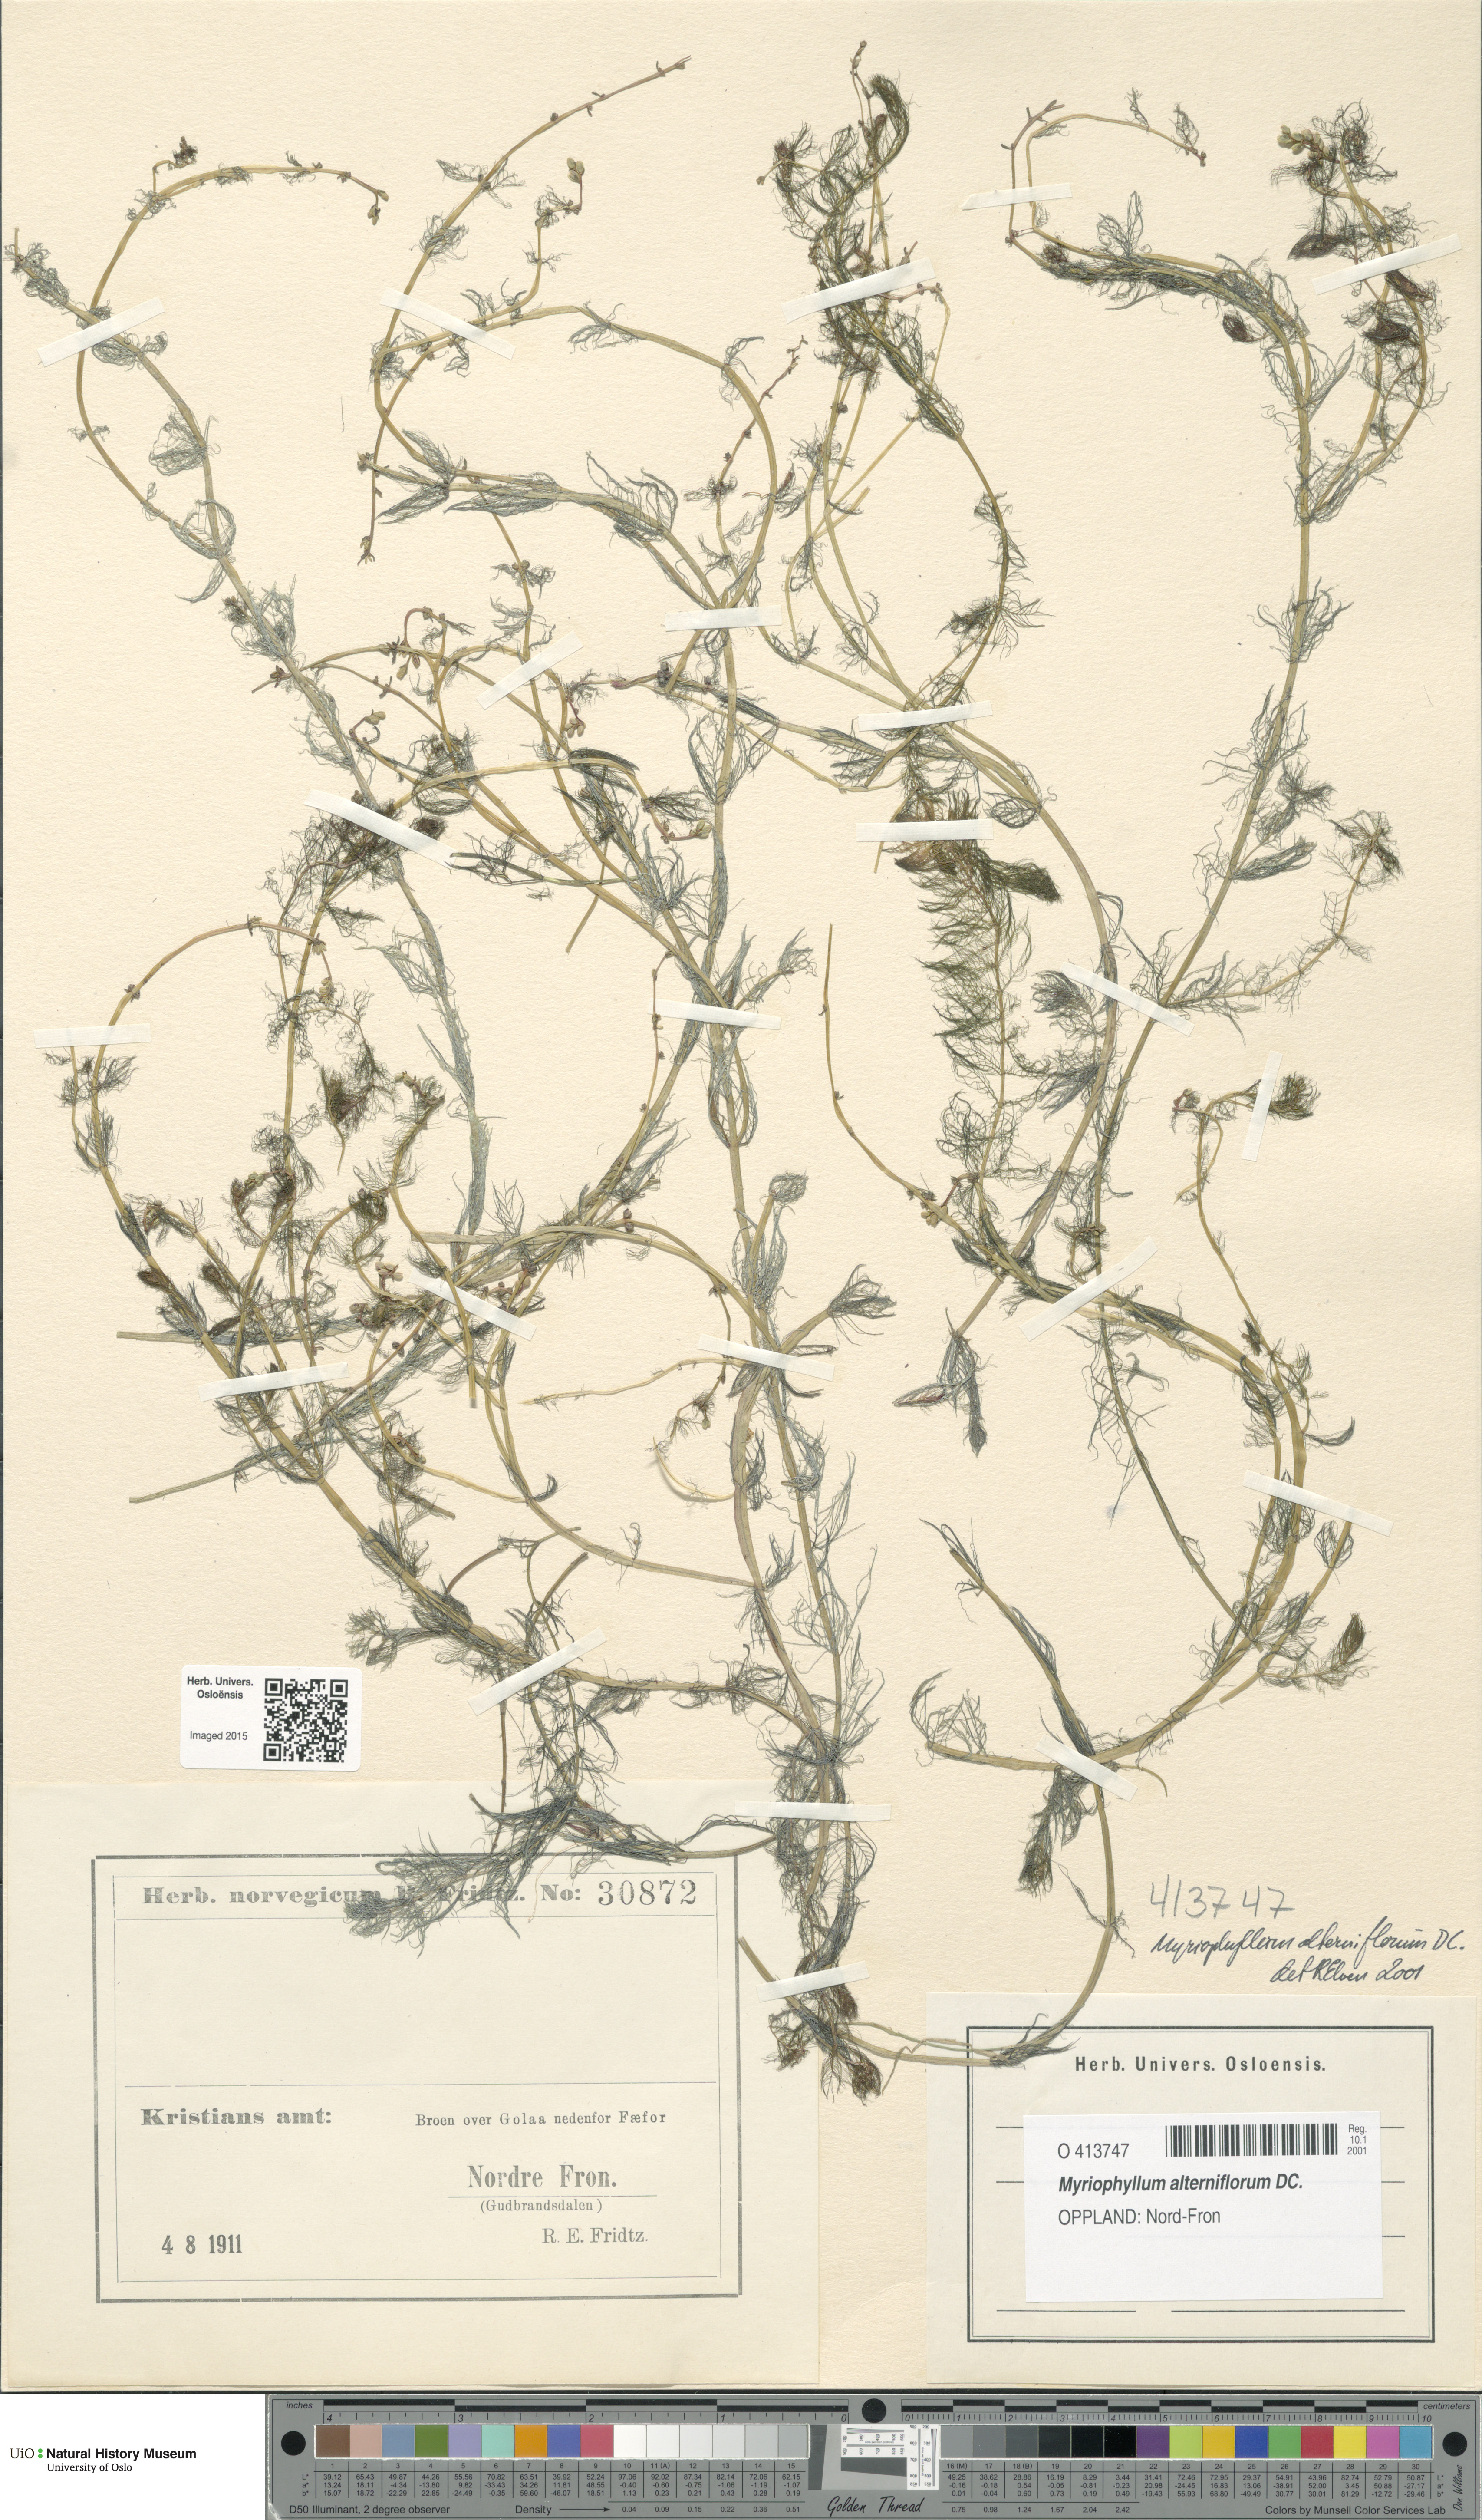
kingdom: Plantae
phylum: Tracheophyta
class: Magnoliopsida
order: Saxifragales
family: Haloragaceae
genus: Myriophyllum
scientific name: Myriophyllum alterniflorum
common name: Alternate water-milfoil
